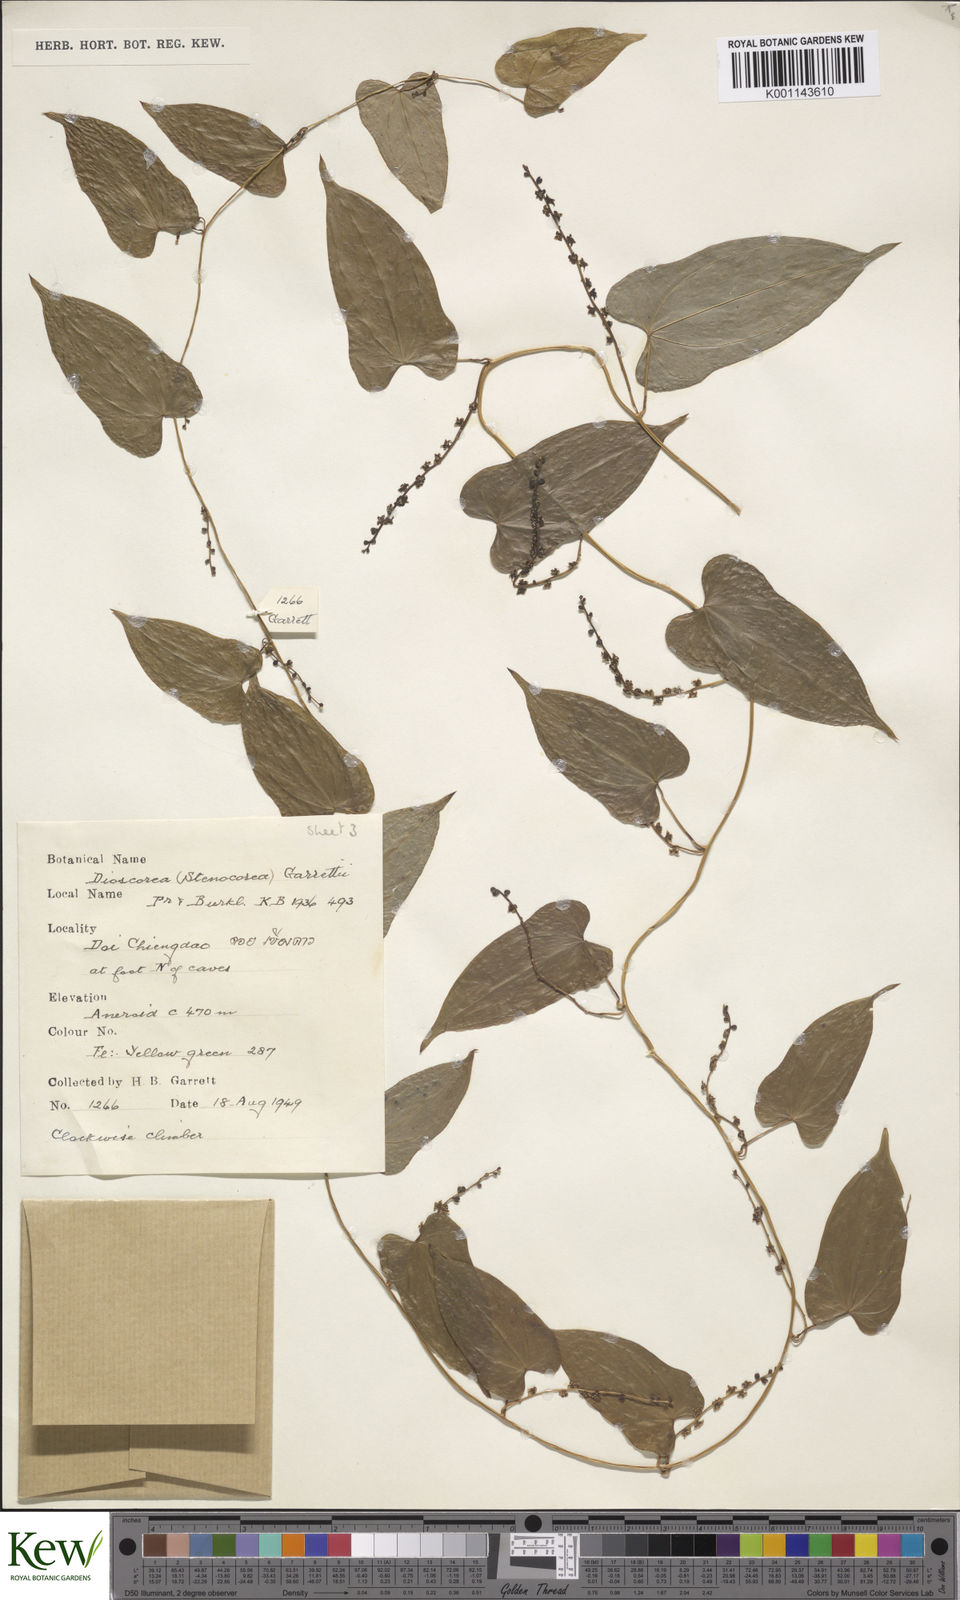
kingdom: Plantae
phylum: Tracheophyta
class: Liliopsida
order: Dioscoreales
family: Dioscoreaceae
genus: Dioscorea
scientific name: Dioscorea garrettii
